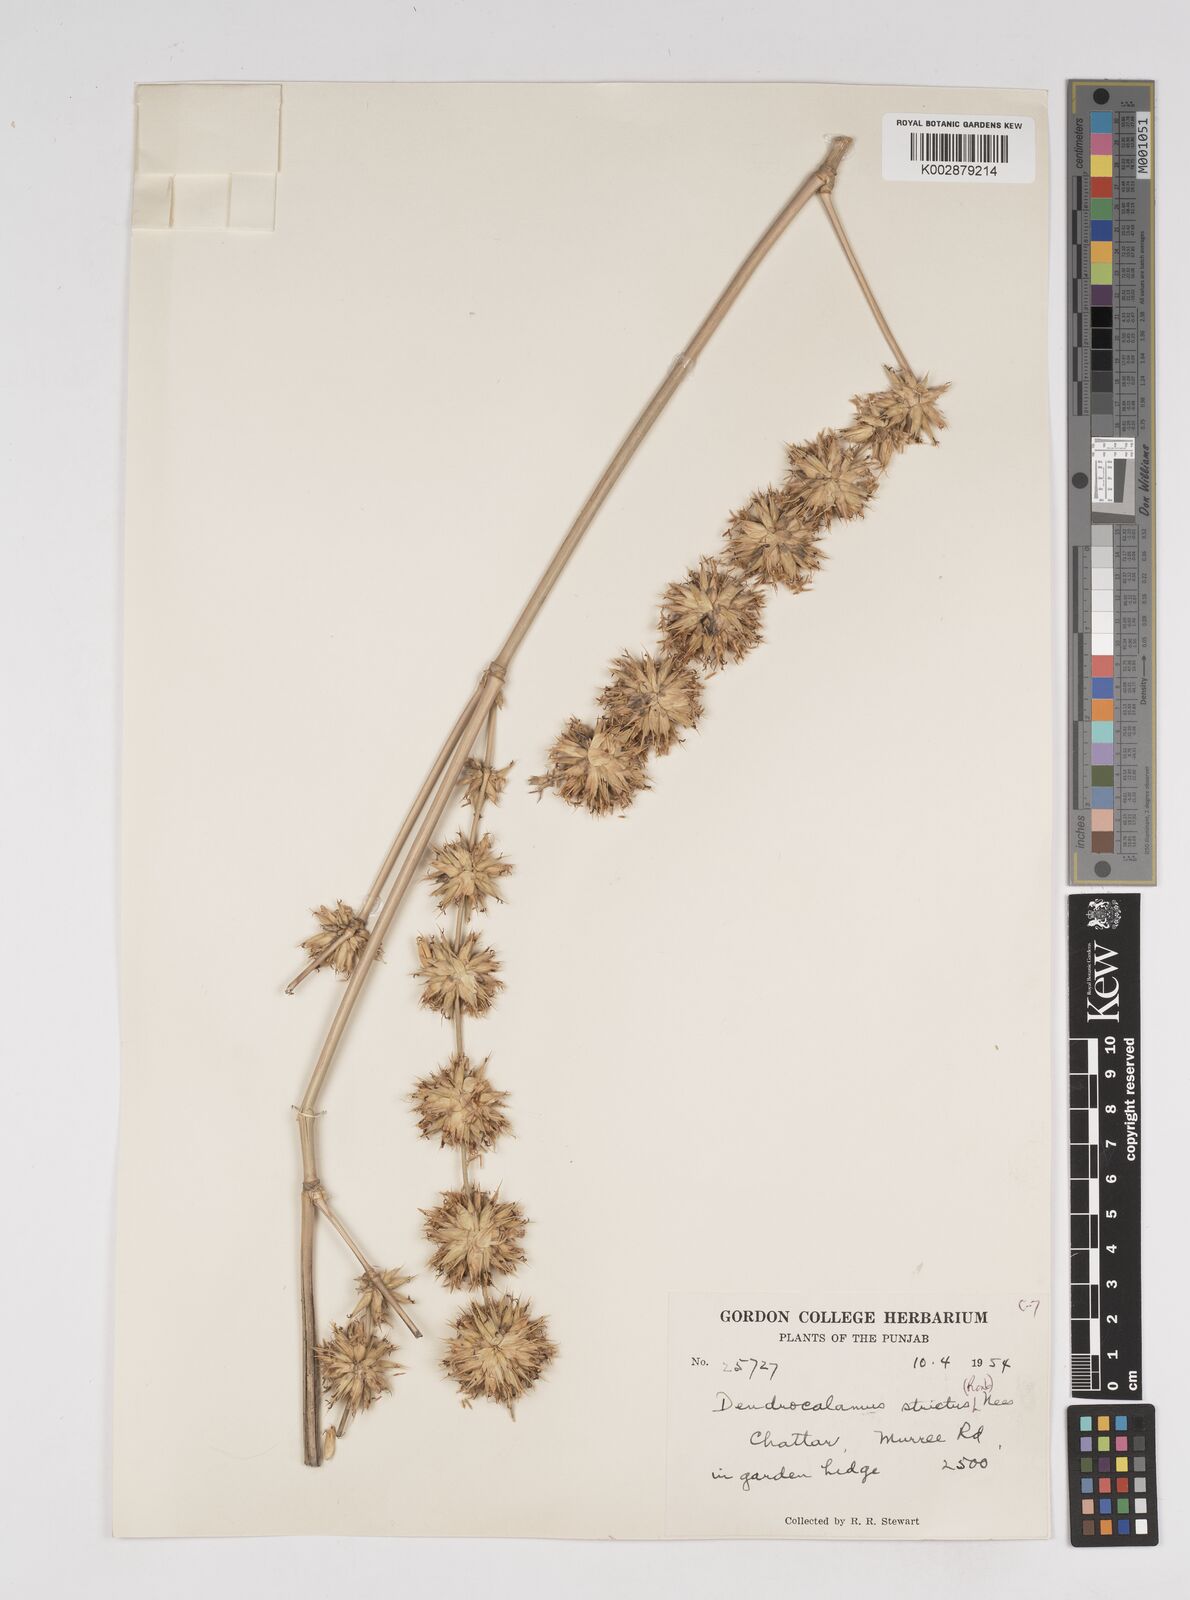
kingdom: Plantae
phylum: Tracheophyta
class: Liliopsida
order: Poales
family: Poaceae
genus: Dendrocalamus
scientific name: Dendrocalamus strictus
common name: Male bamboo
